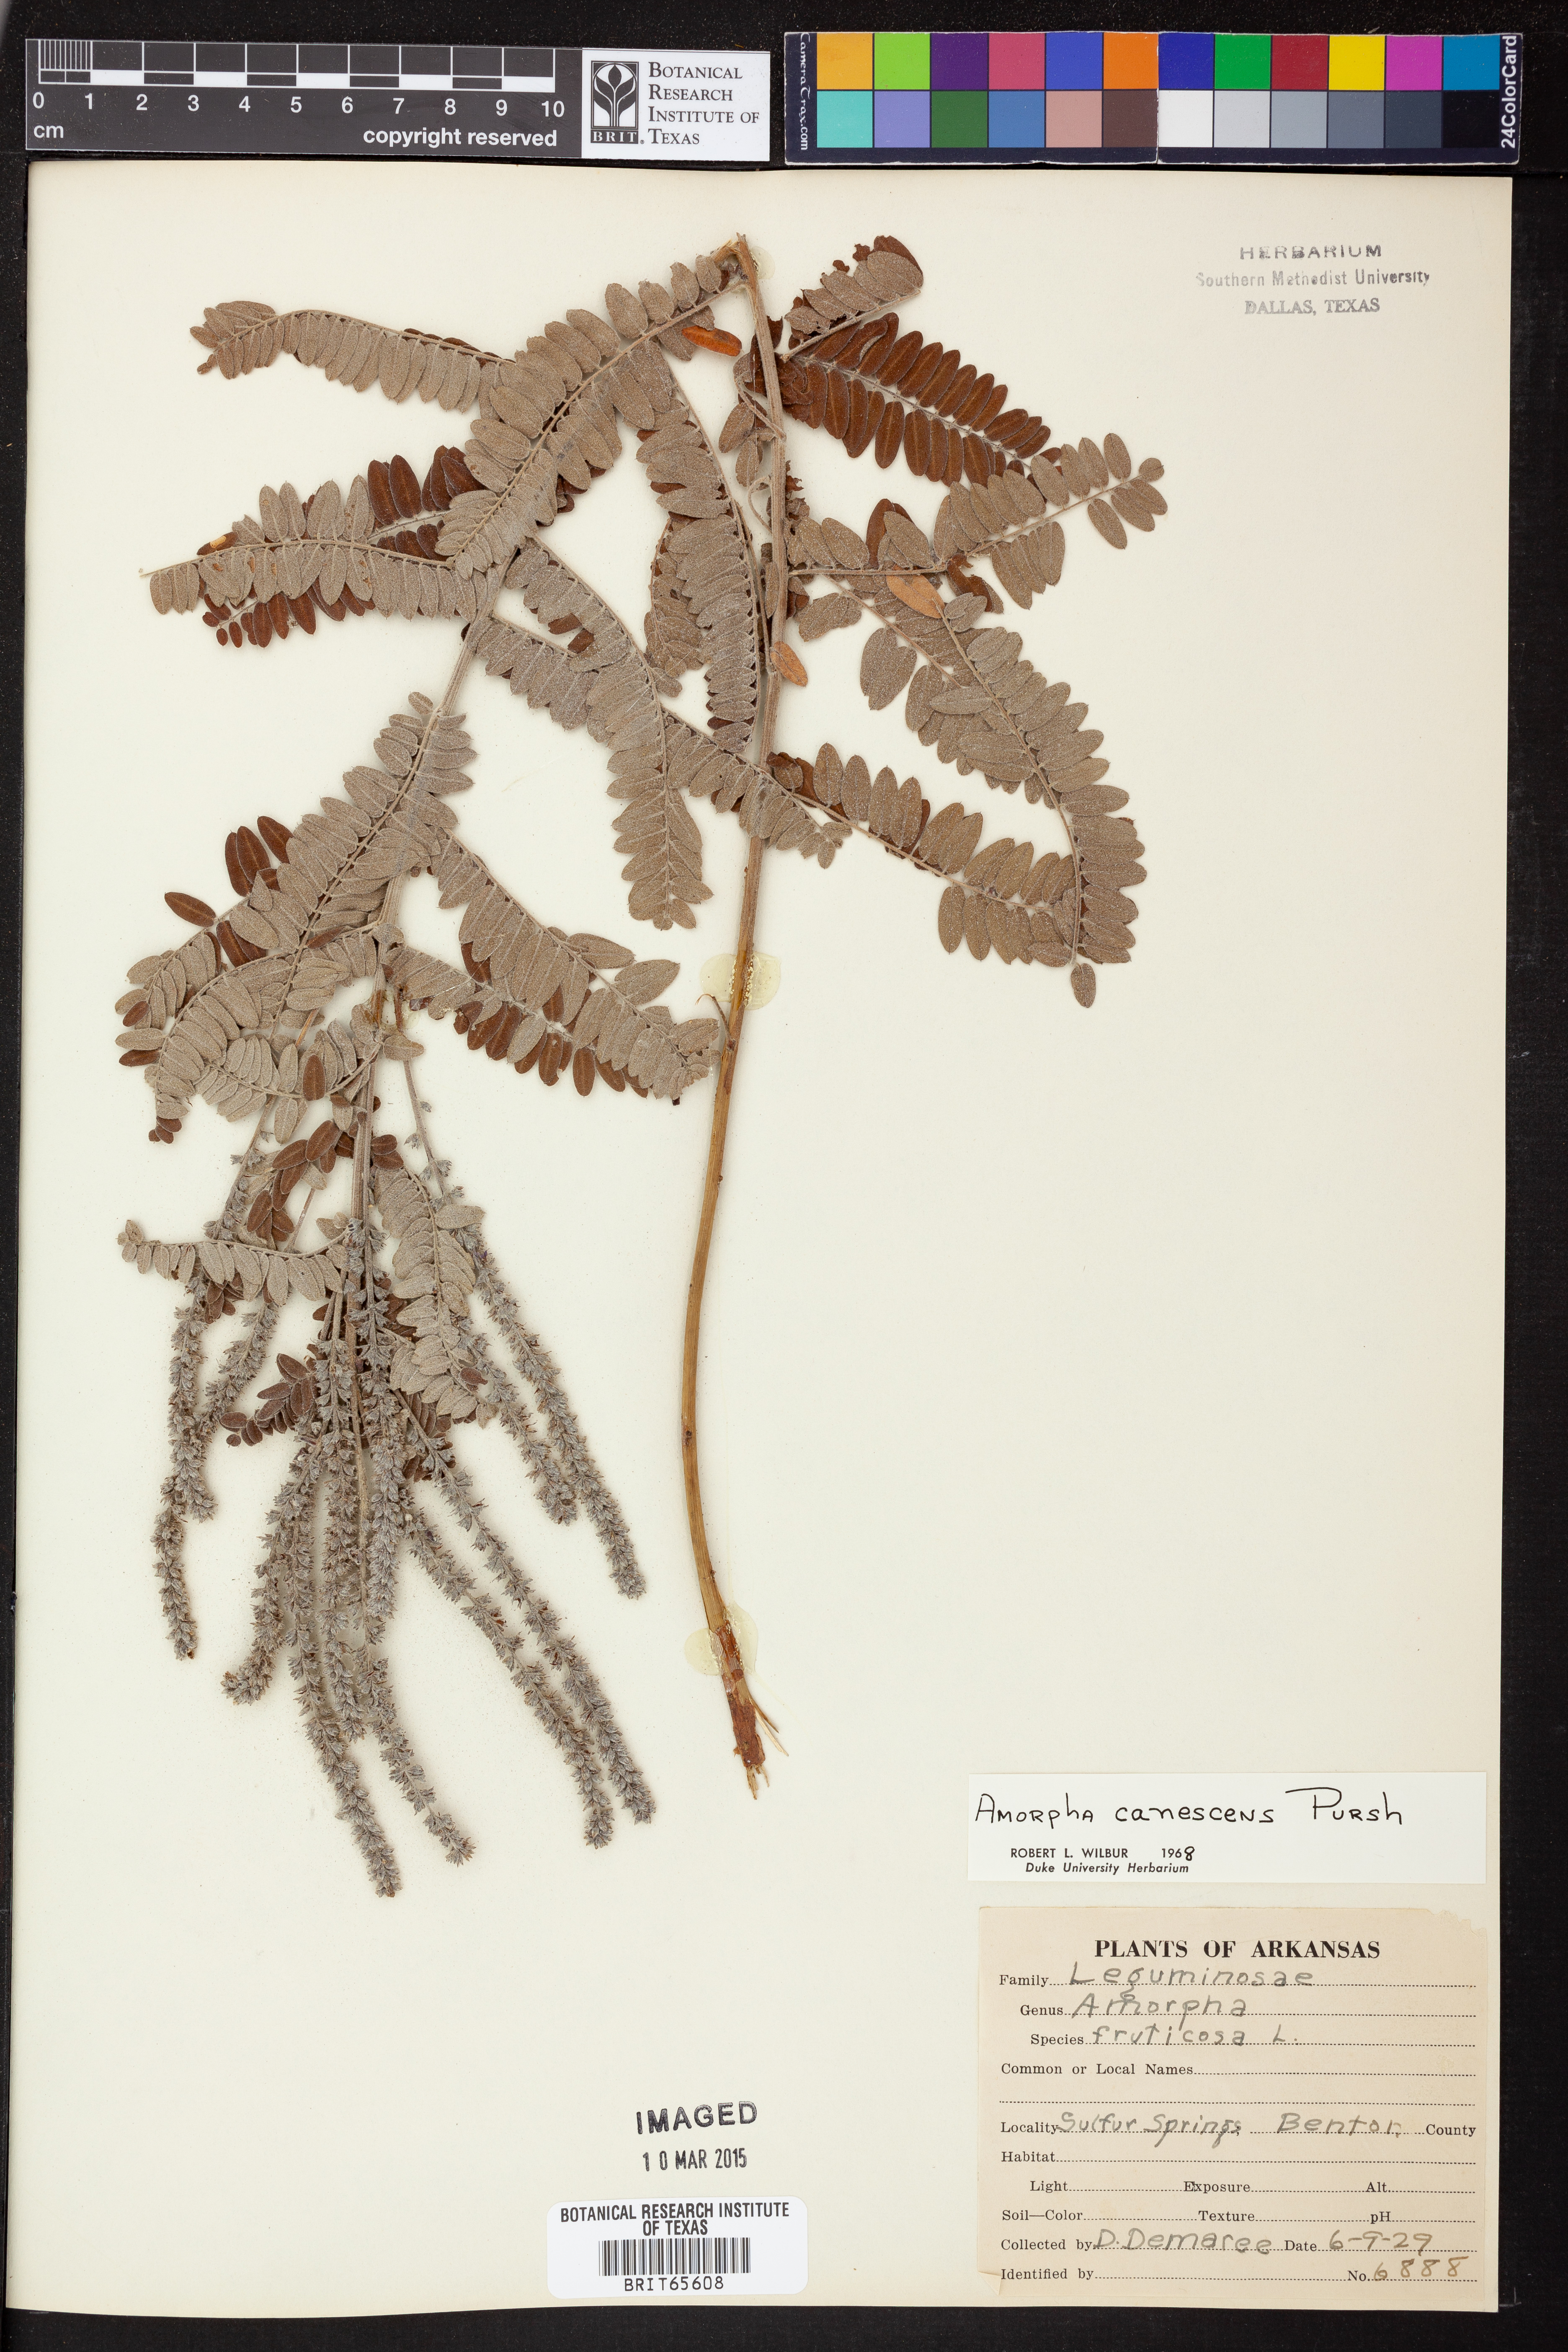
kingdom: Plantae
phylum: Tracheophyta
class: Magnoliopsida
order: Fabales
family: Fabaceae
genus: Amorpha
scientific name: Amorpha canescens
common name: Leadplant
